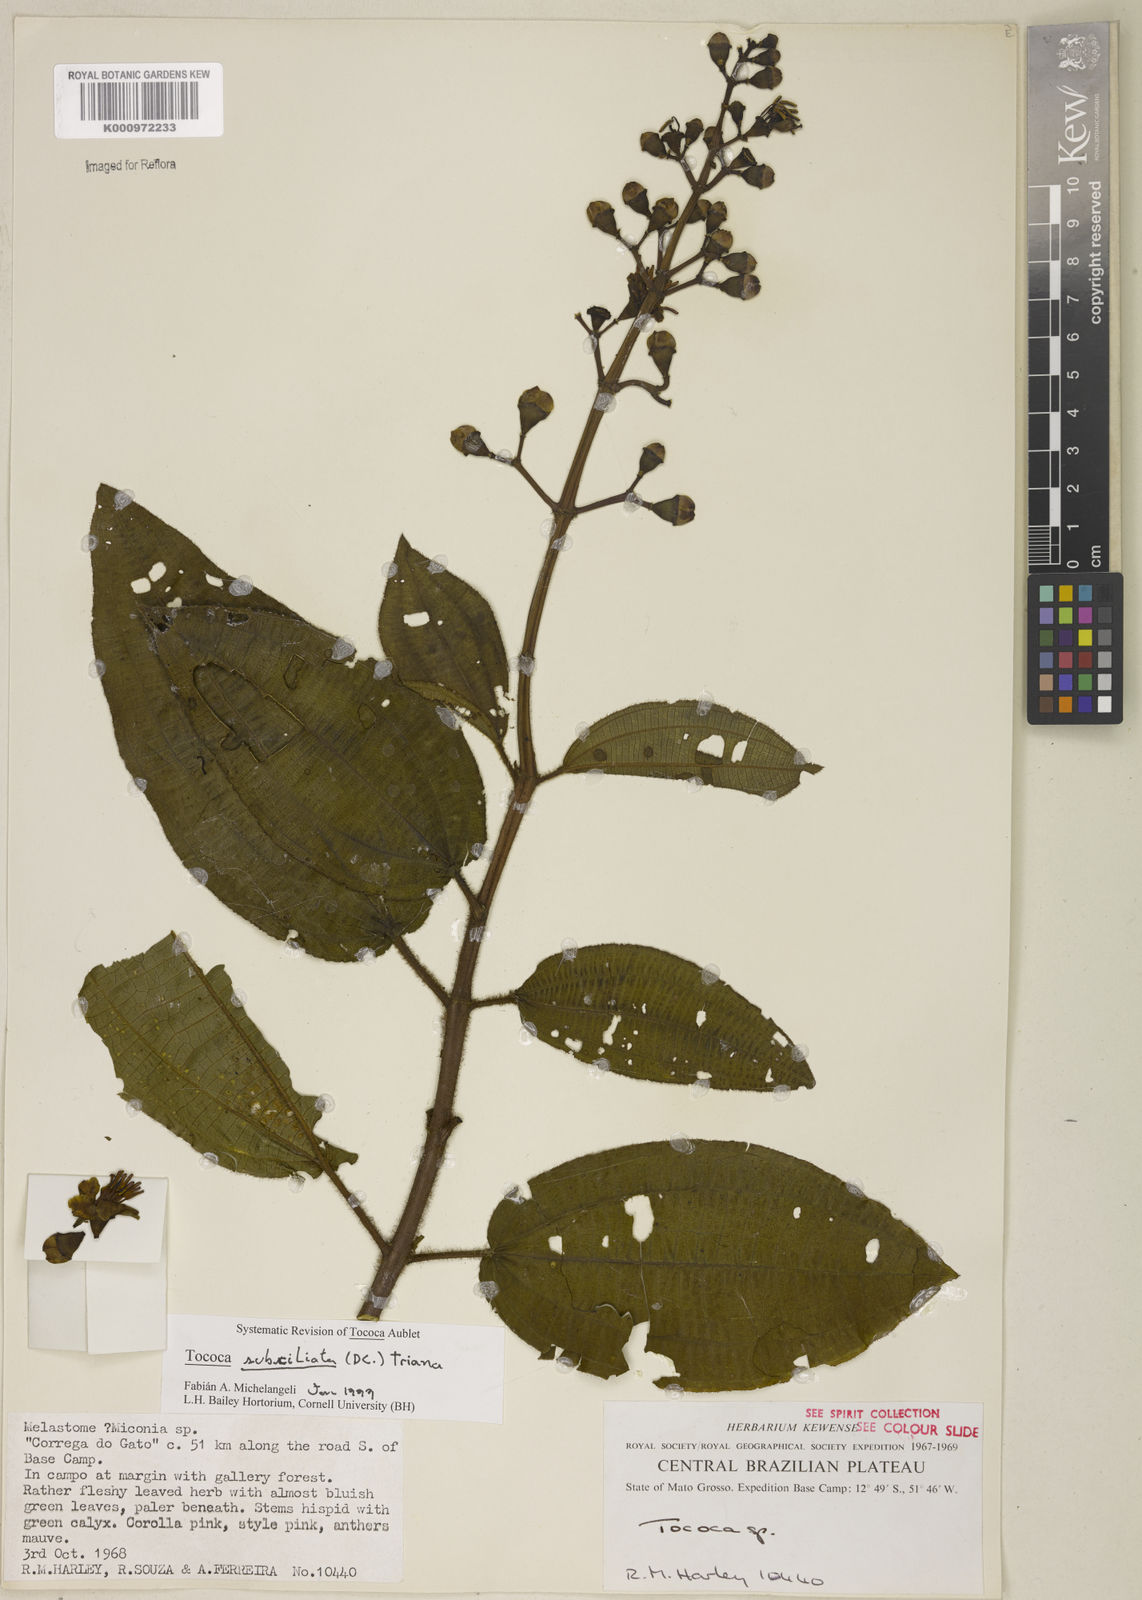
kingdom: Plantae
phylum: Tracheophyta
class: Magnoliopsida
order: Myrtales
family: Melastomataceae
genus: Miconia
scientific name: Miconia subciliata
